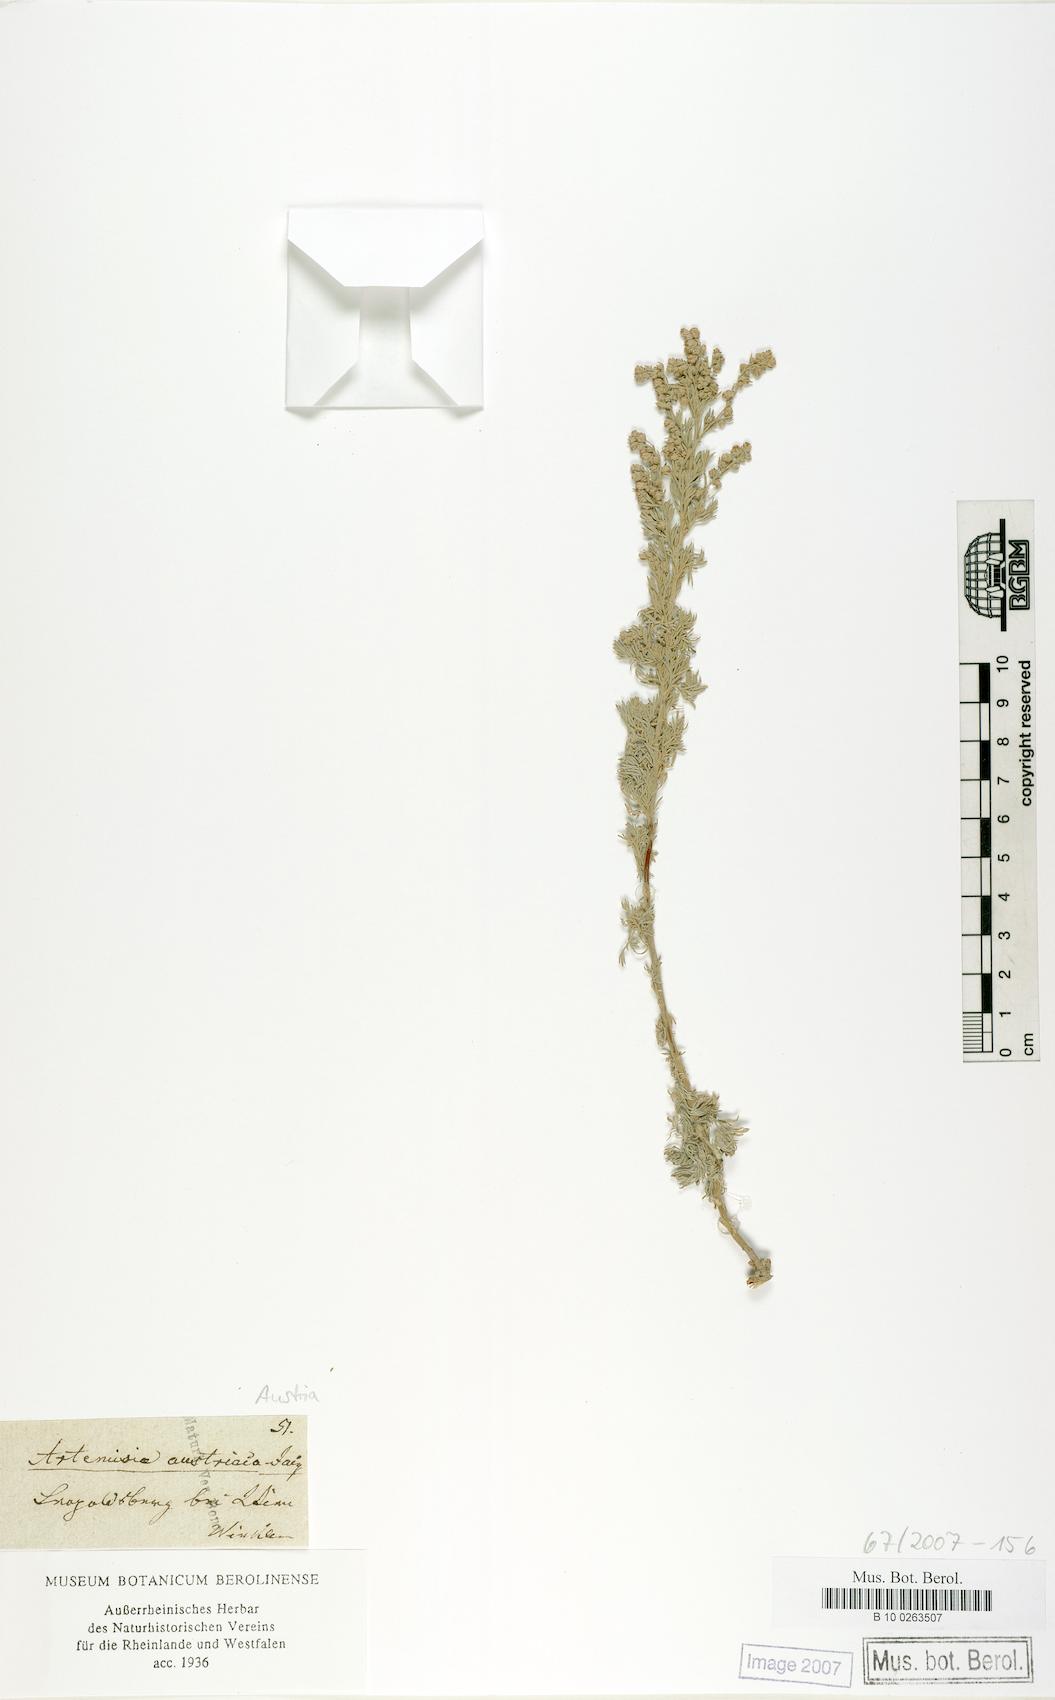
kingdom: Plantae
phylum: Tracheophyta
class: Magnoliopsida
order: Asterales
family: Asteraceae
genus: Artemisia
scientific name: Artemisia austriaca
